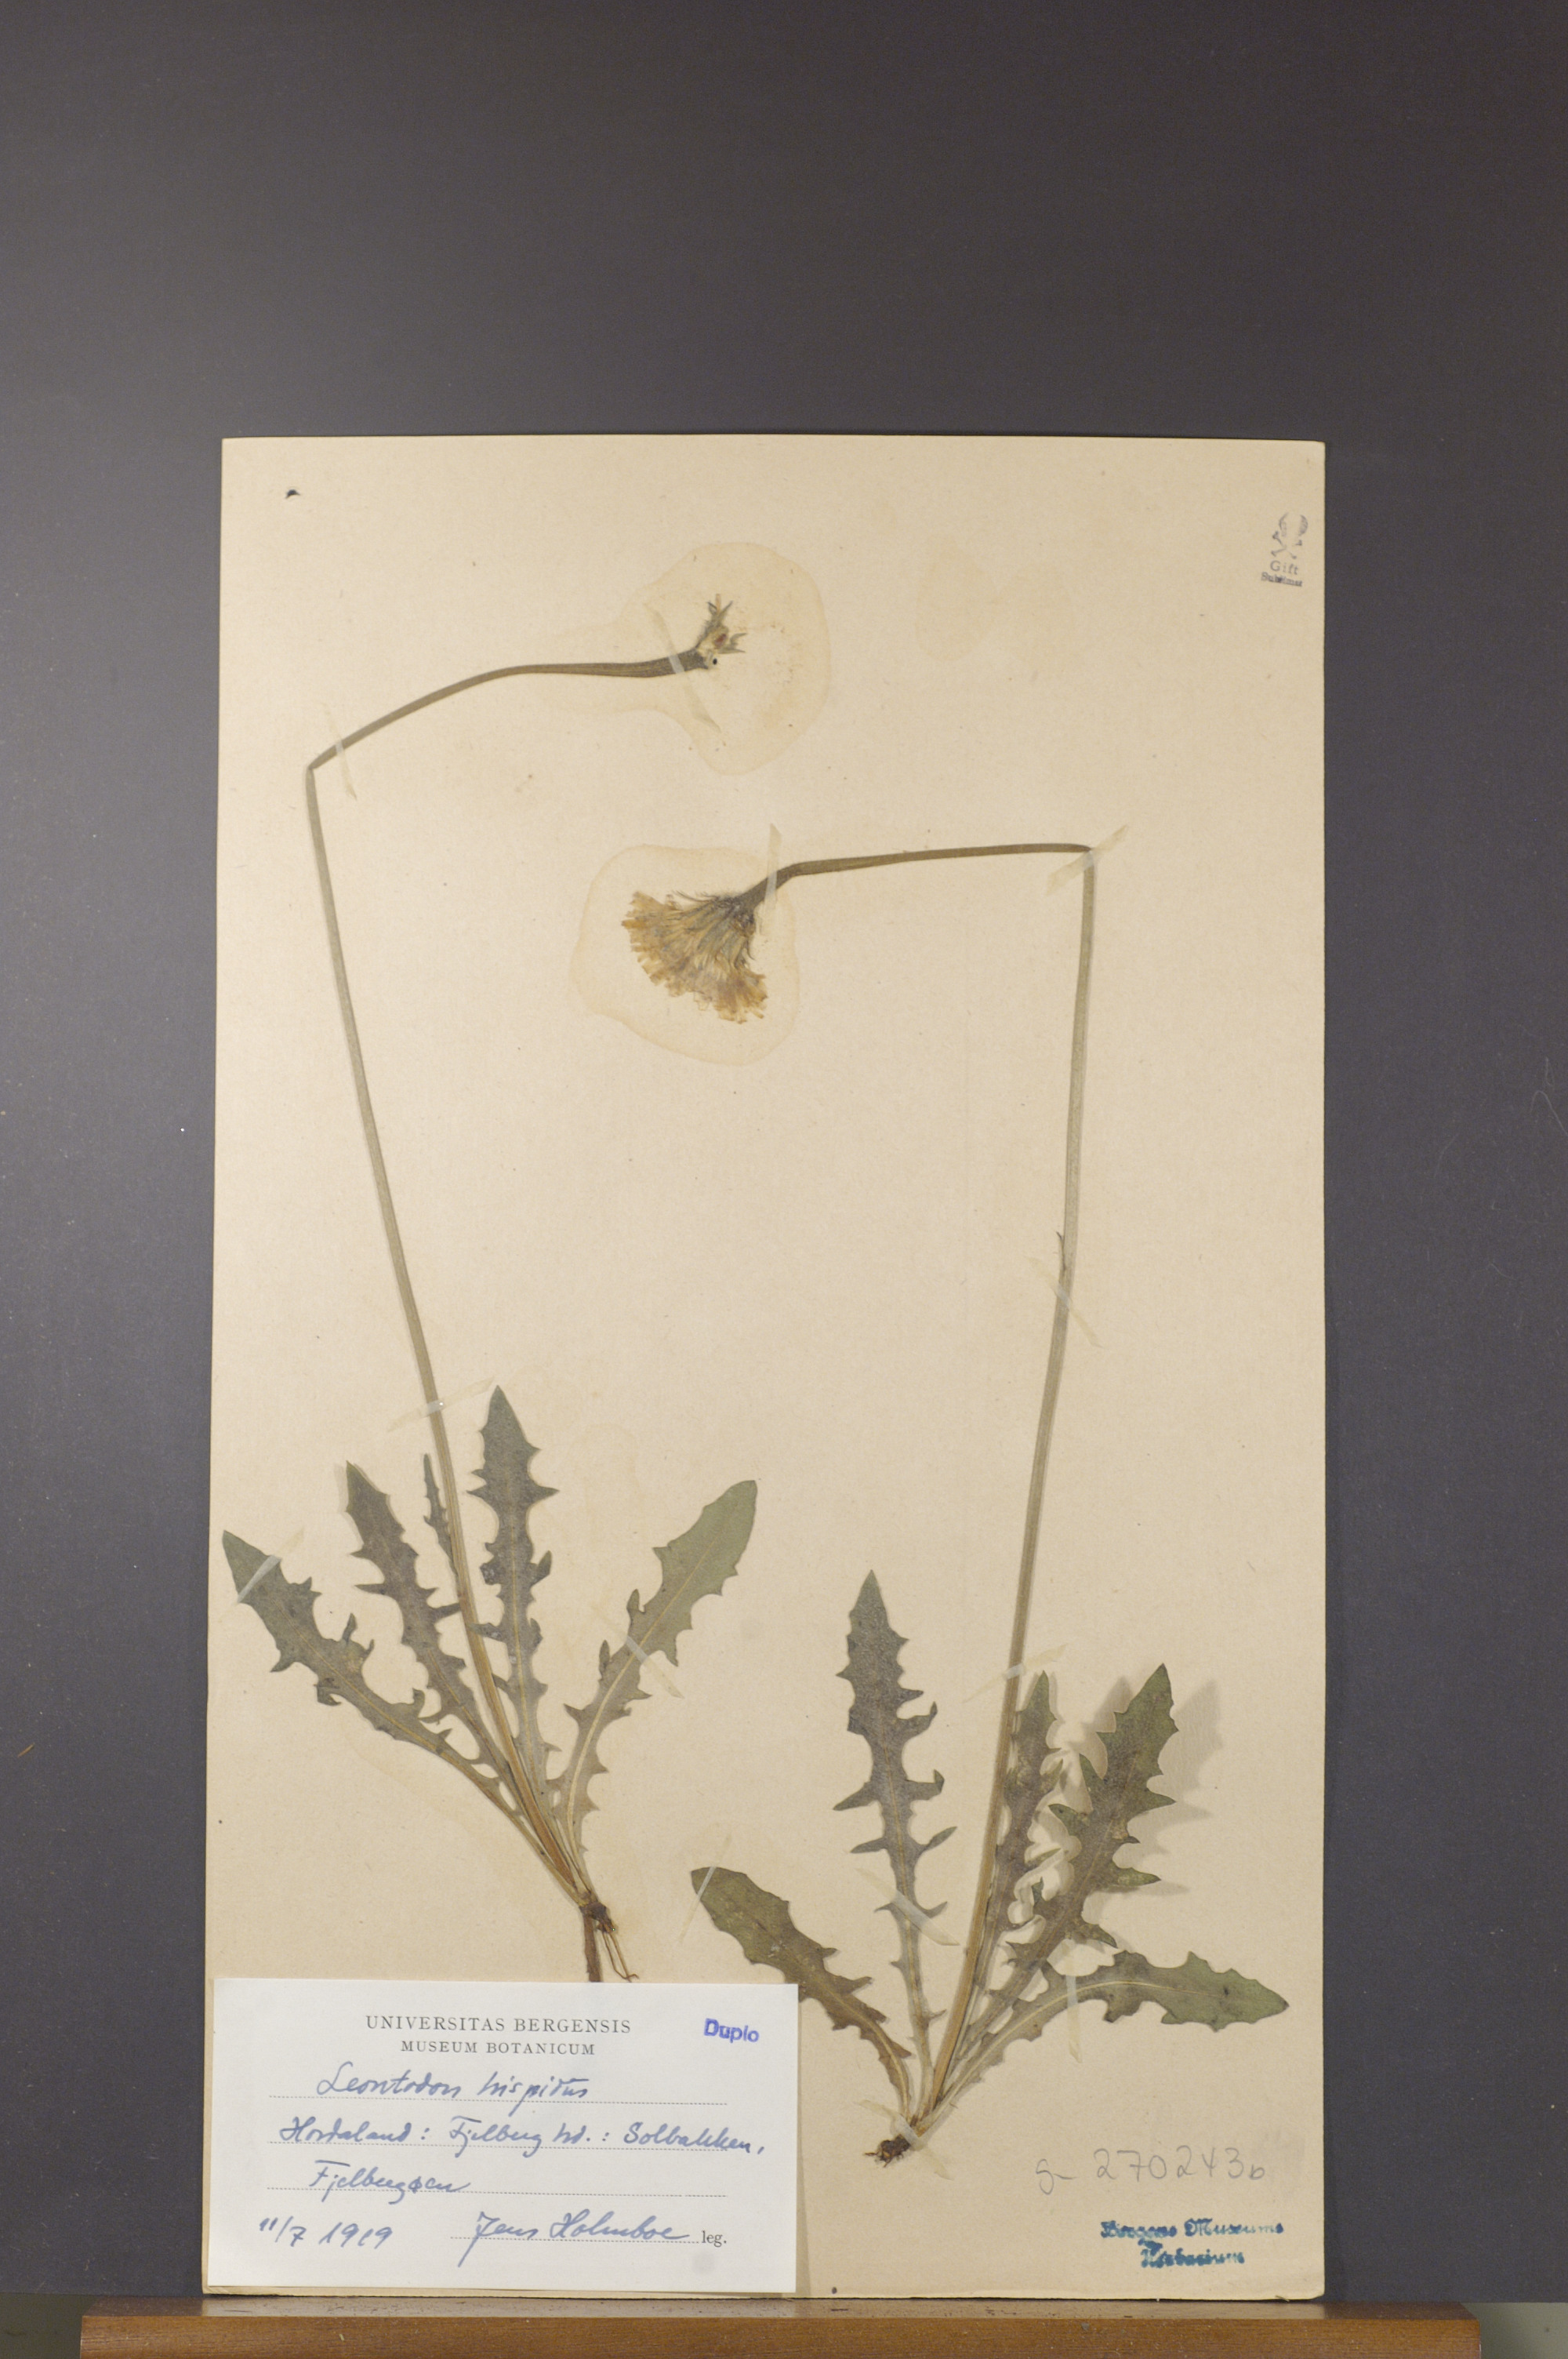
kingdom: Plantae
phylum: Tracheophyta
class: Magnoliopsida
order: Asterales
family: Asteraceae
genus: Leontodon
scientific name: Leontodon hispidus
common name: Rough hawkbit
